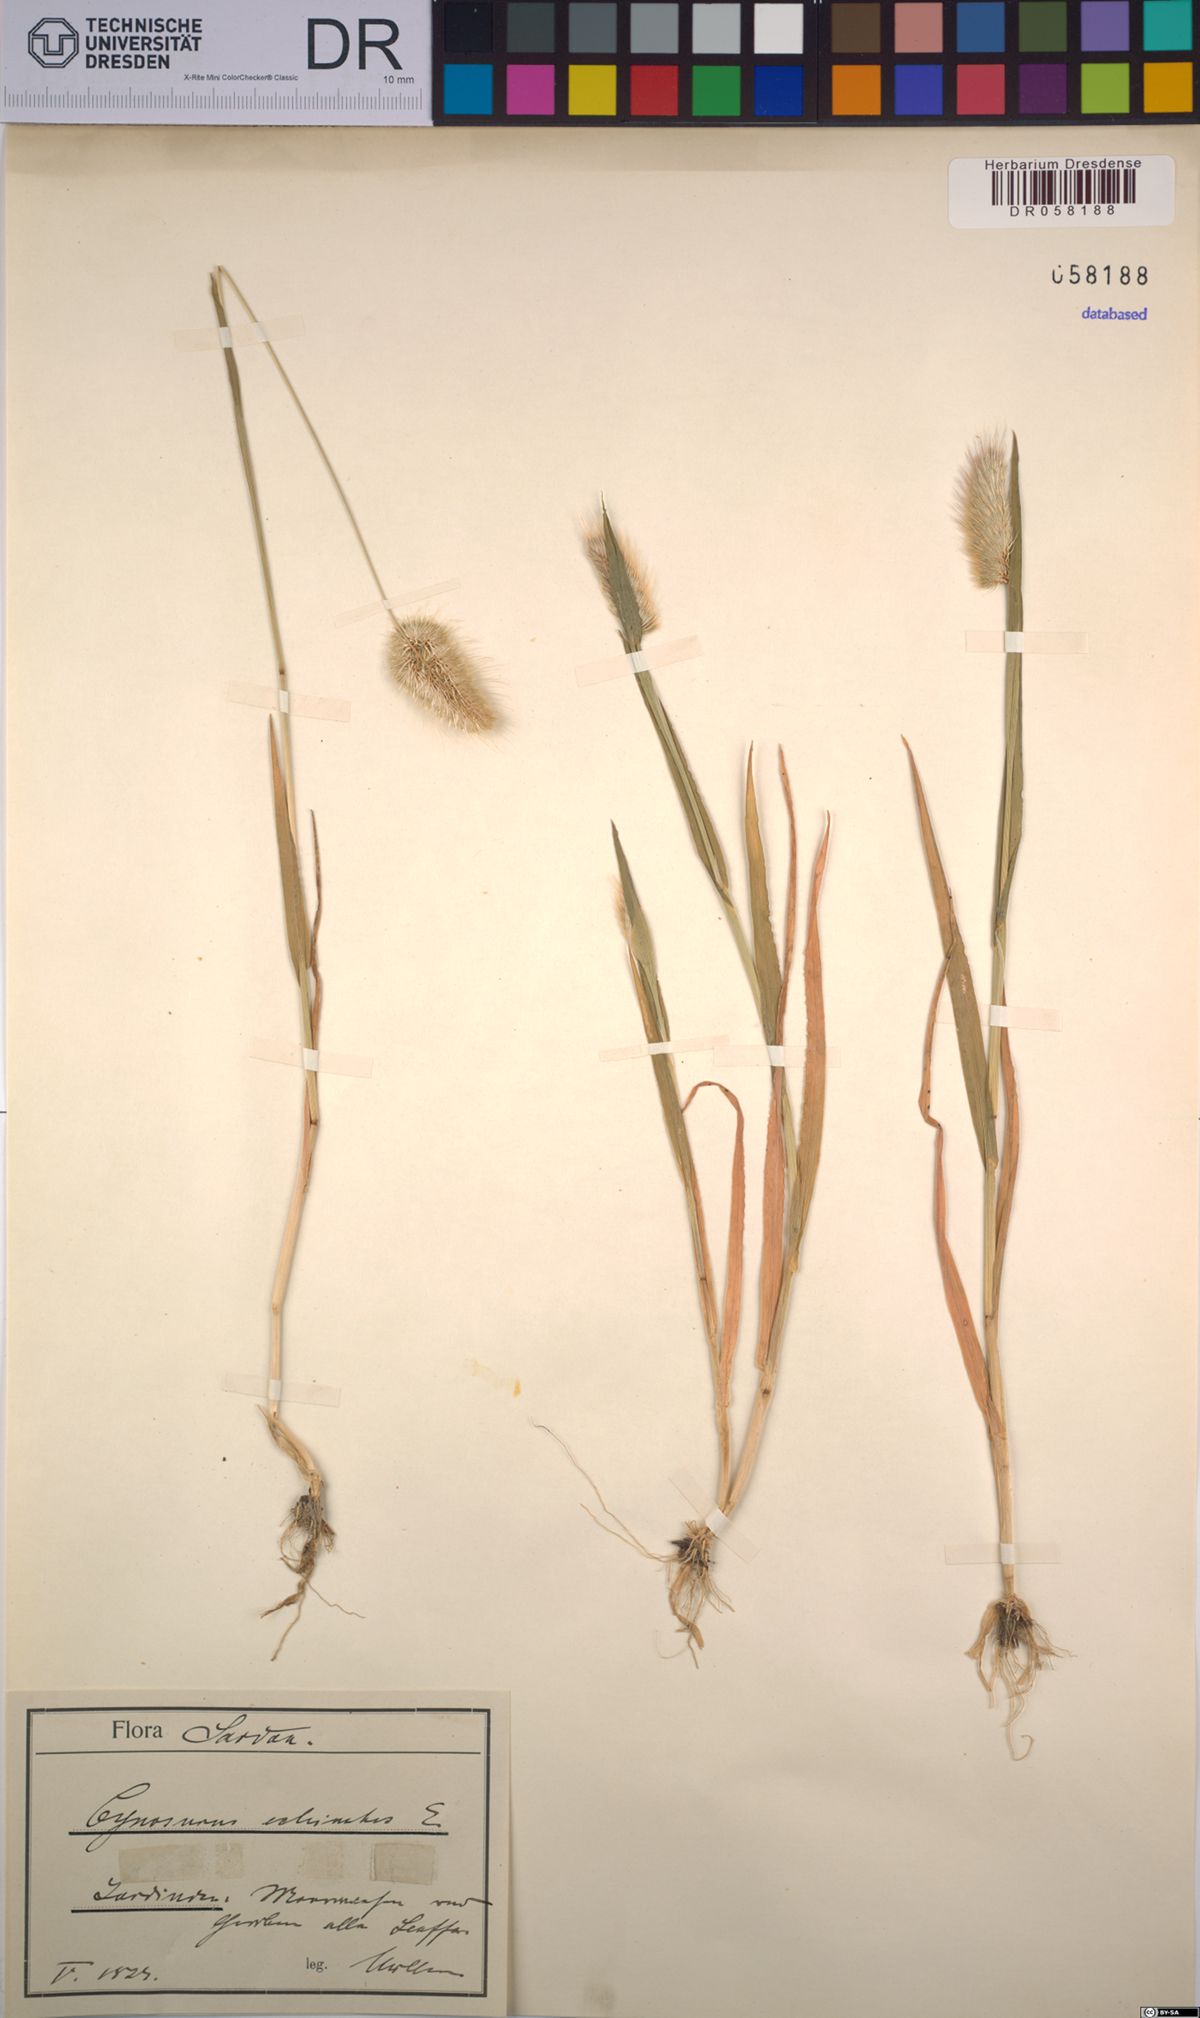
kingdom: Plantae
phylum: Tracheophyta
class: Liliopsida
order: Poales
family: Poaceae
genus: Cynosurus
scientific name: Cynosurus echinatus
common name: Rough dog's-tail
